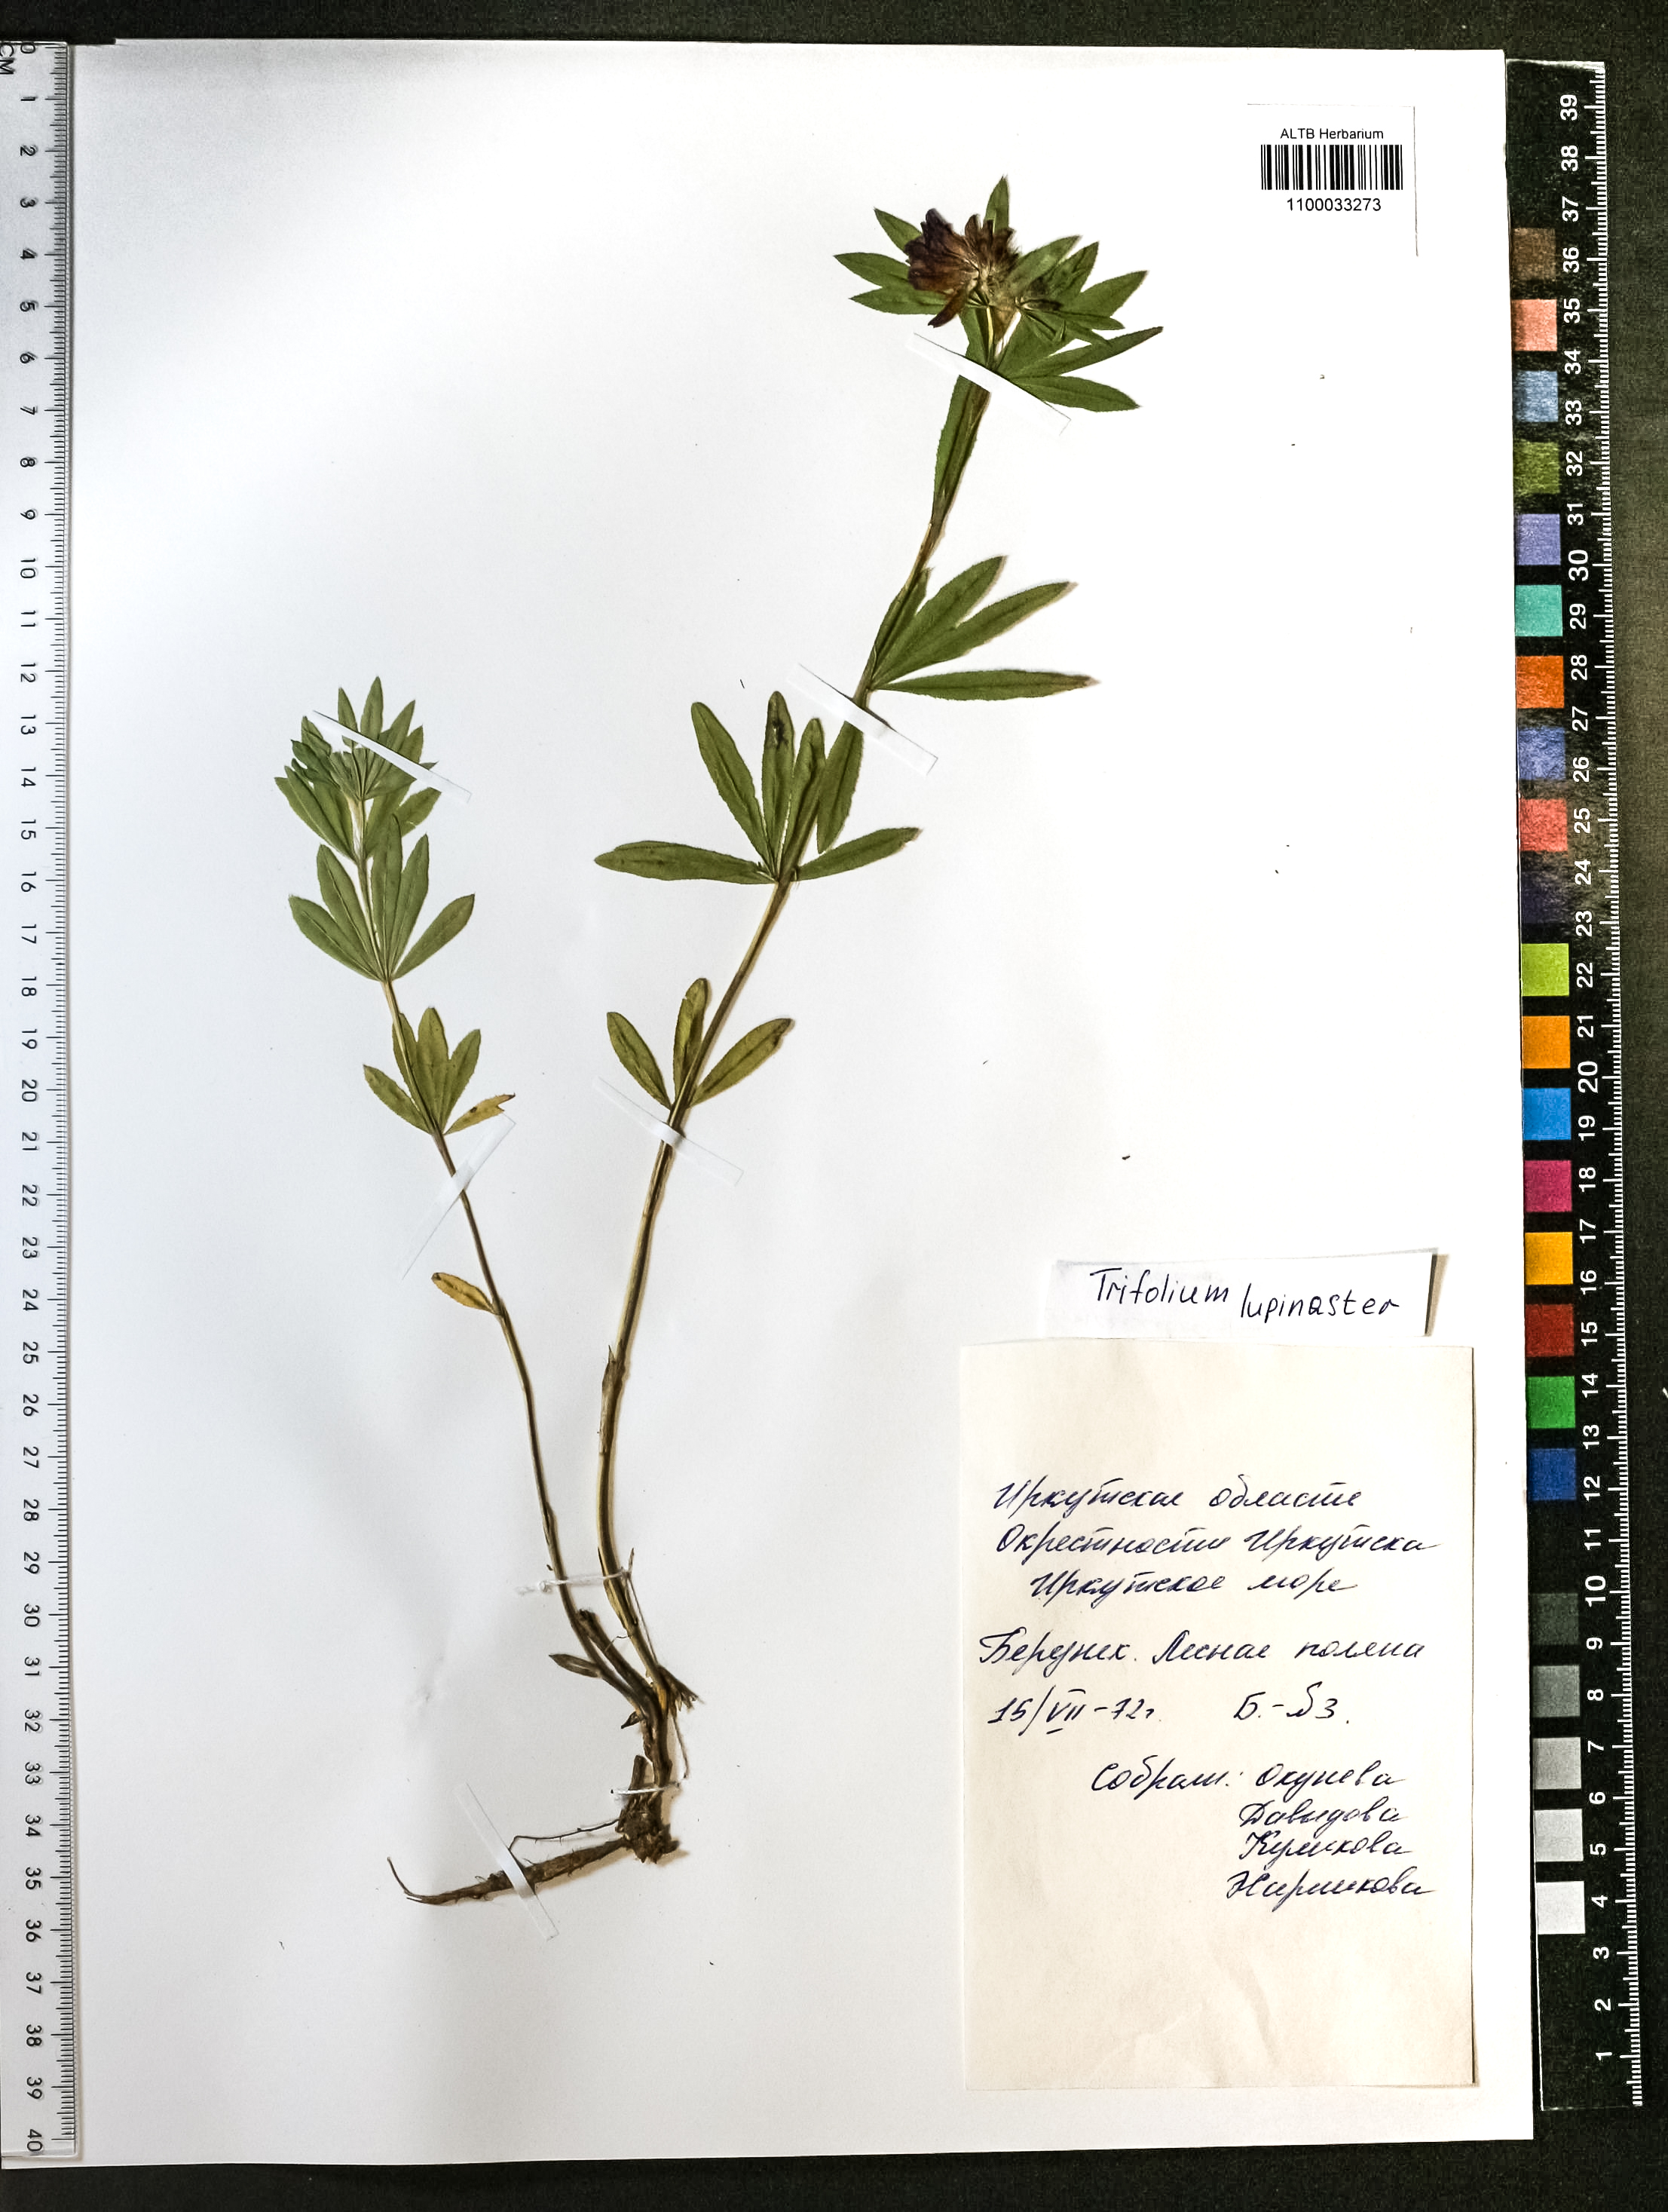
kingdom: Plantae
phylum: Tracheophyta
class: Magnoliopsida
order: Fabales
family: Fabaceae
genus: Trifolium
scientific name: Trifolium lupinaster
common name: Lupine clover
